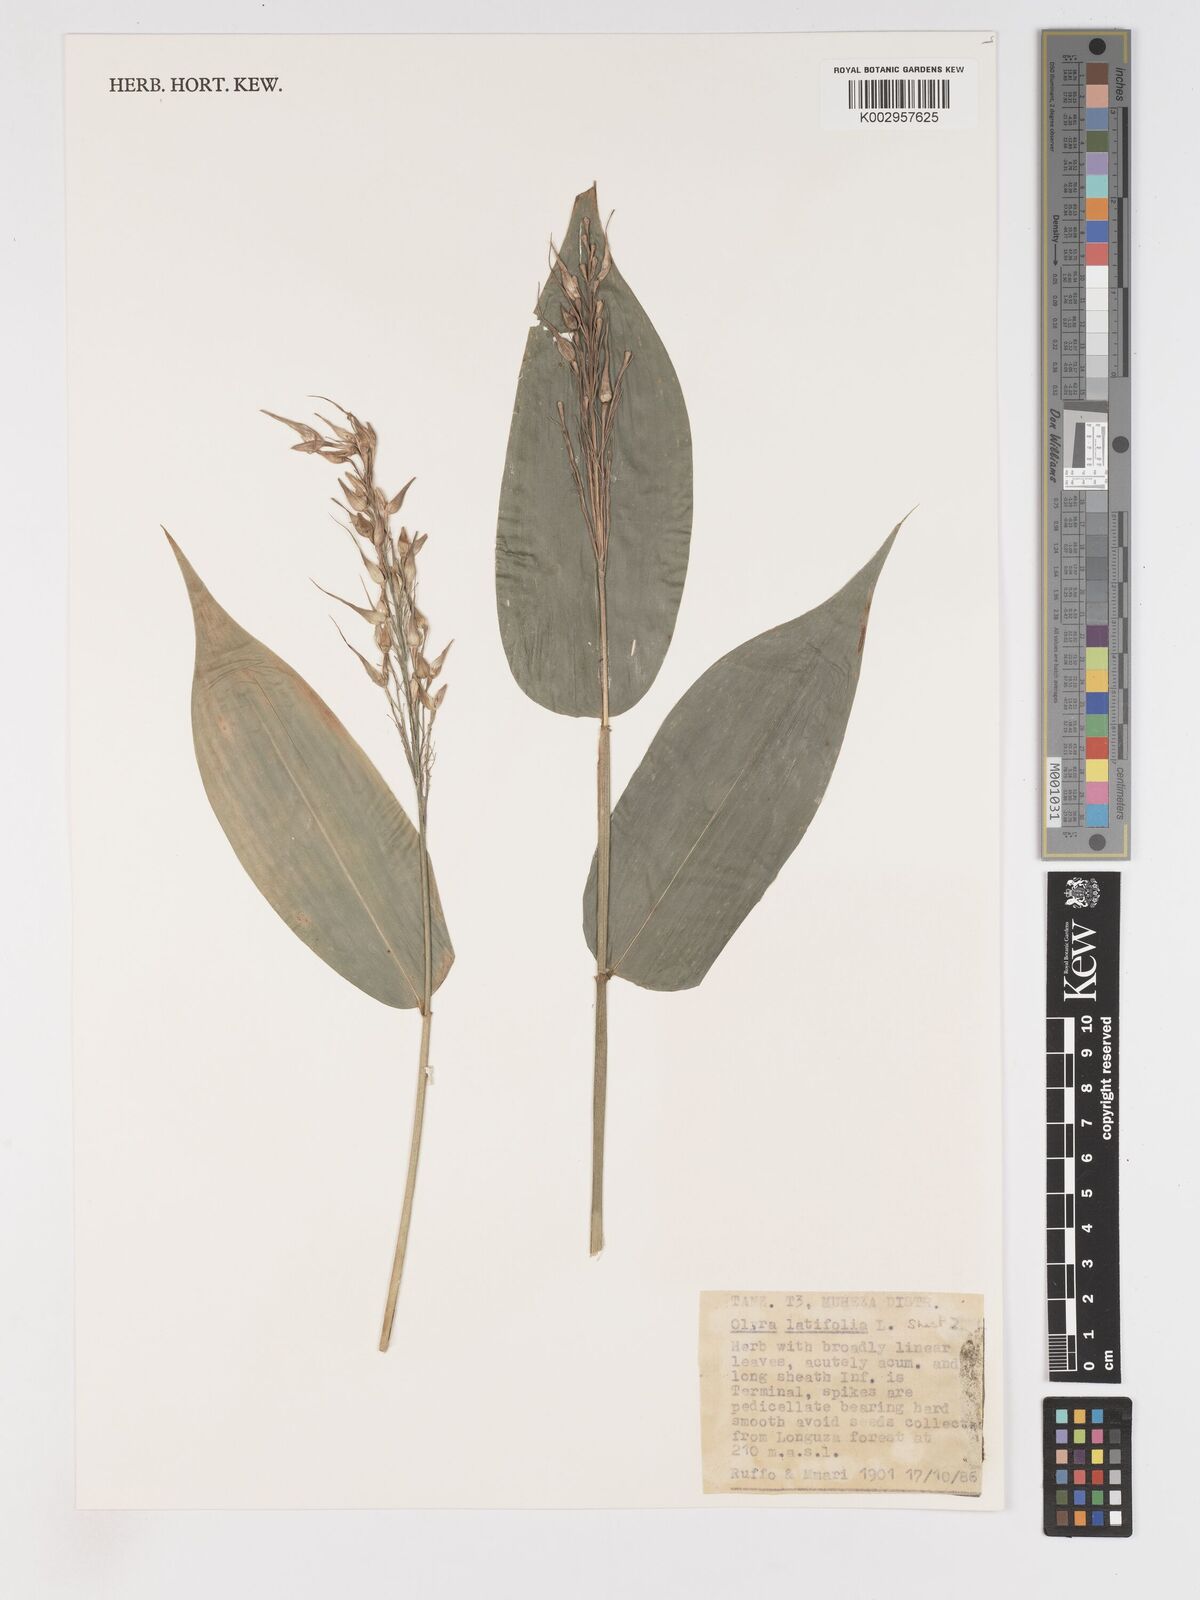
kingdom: Plantae
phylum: Tracheophyta
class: Liliopsida
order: Poales
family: Poaceae
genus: Olyra
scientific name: Olyra latifolia
